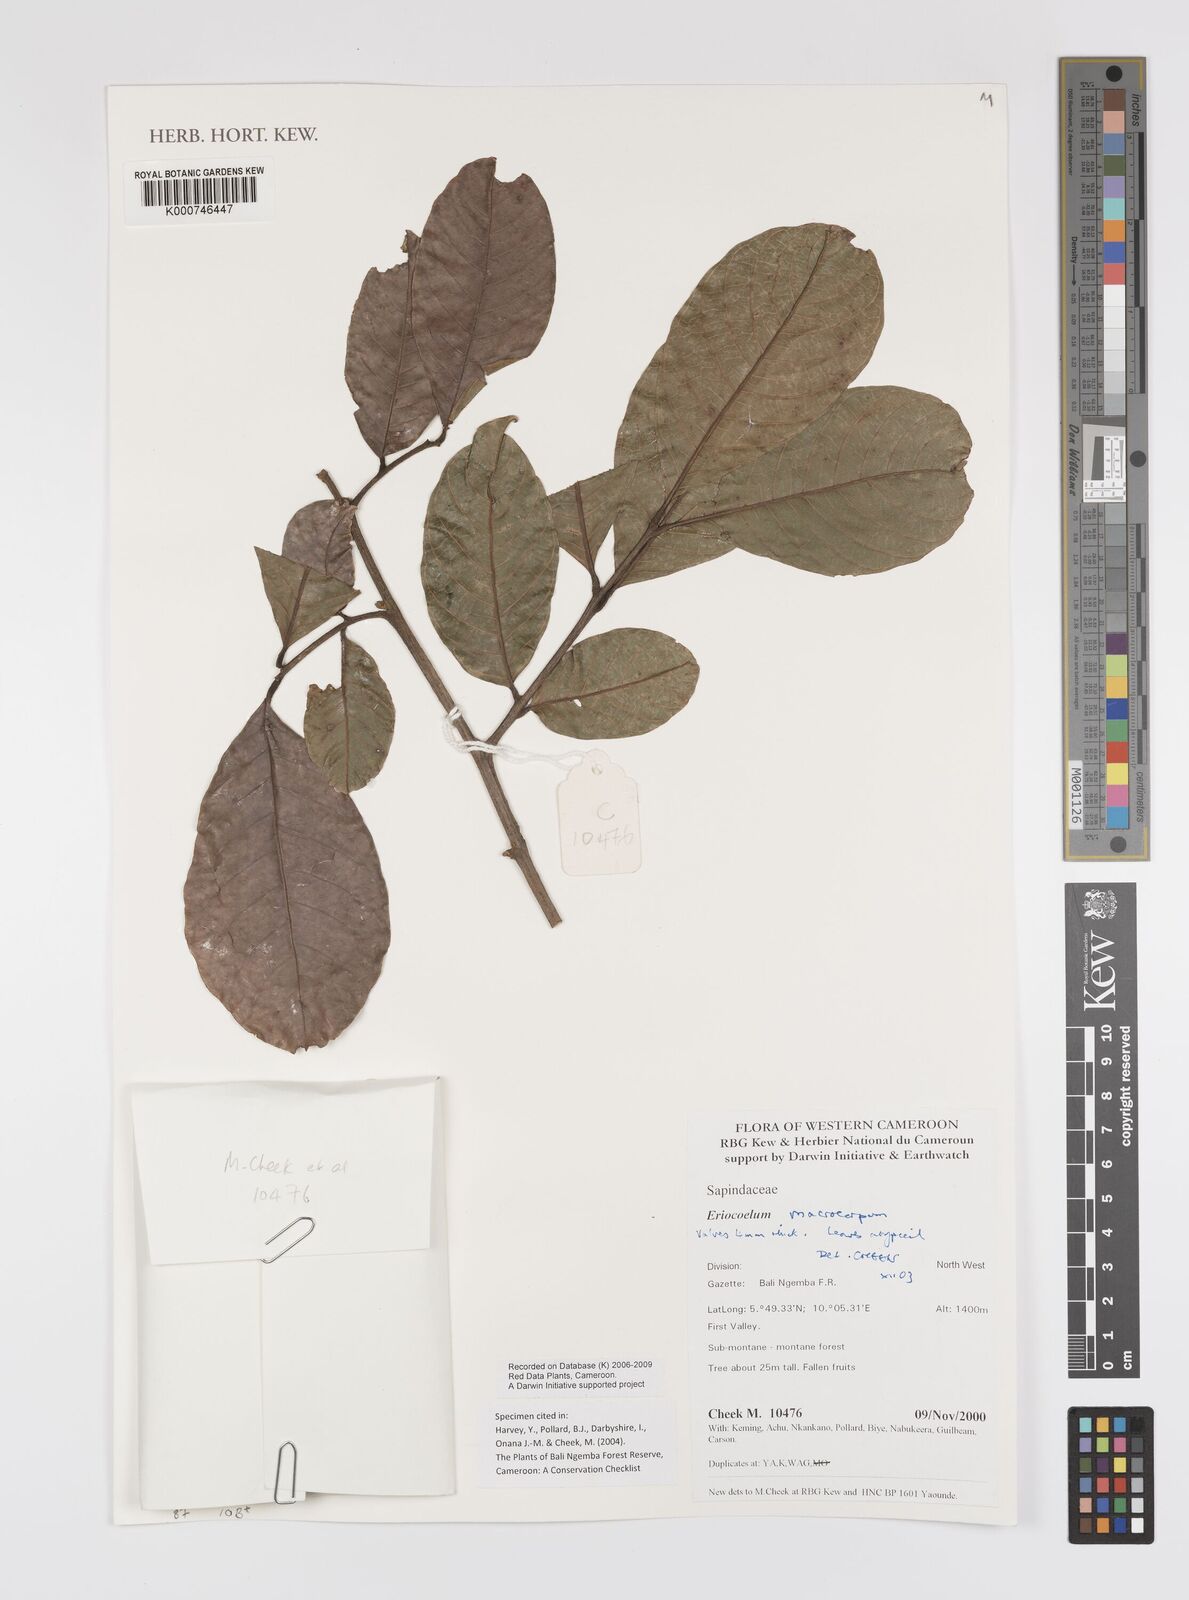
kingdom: Plantae
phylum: Tracheophyta
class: Magnoliopsida
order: Sapindales
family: Sapindaceae
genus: Eriocoelum
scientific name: Eriocoelum
